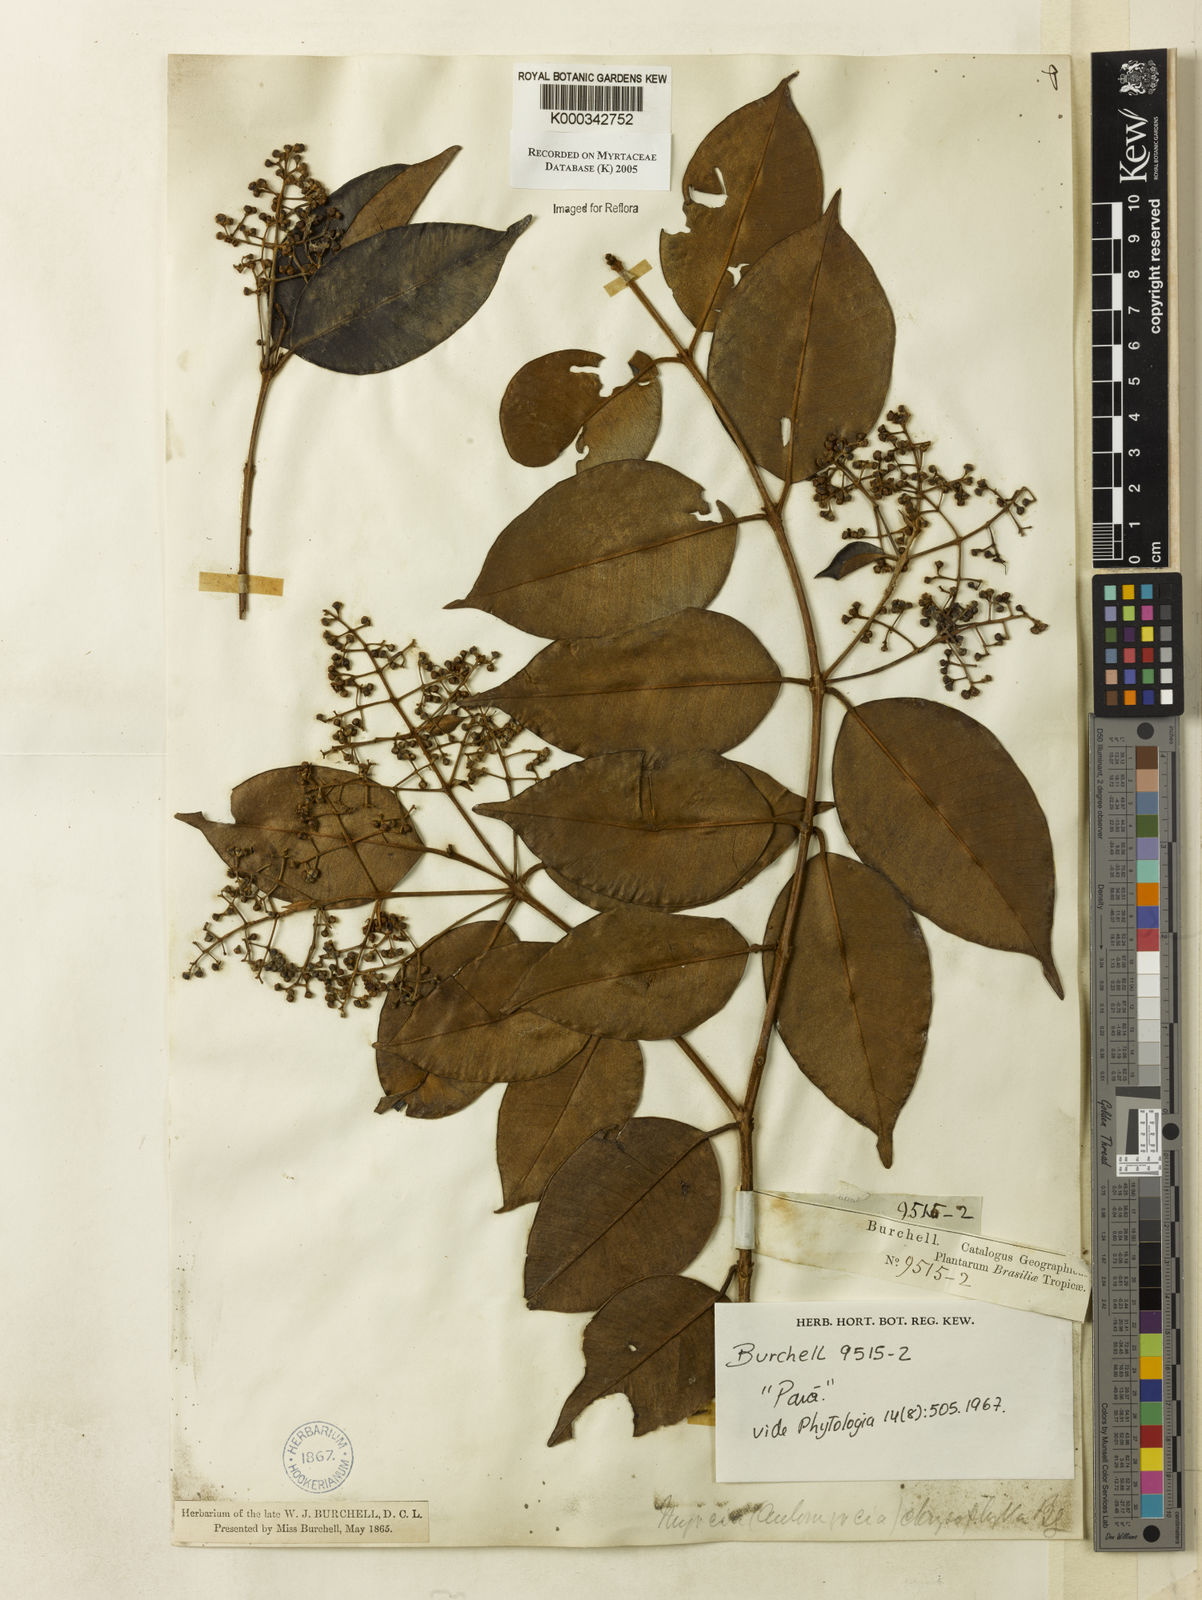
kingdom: Plantae
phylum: Tracheophyta
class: Magnoliopsida
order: Myrtales
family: Myrtaceae
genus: Myrcia
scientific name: Myrcia cuprea
